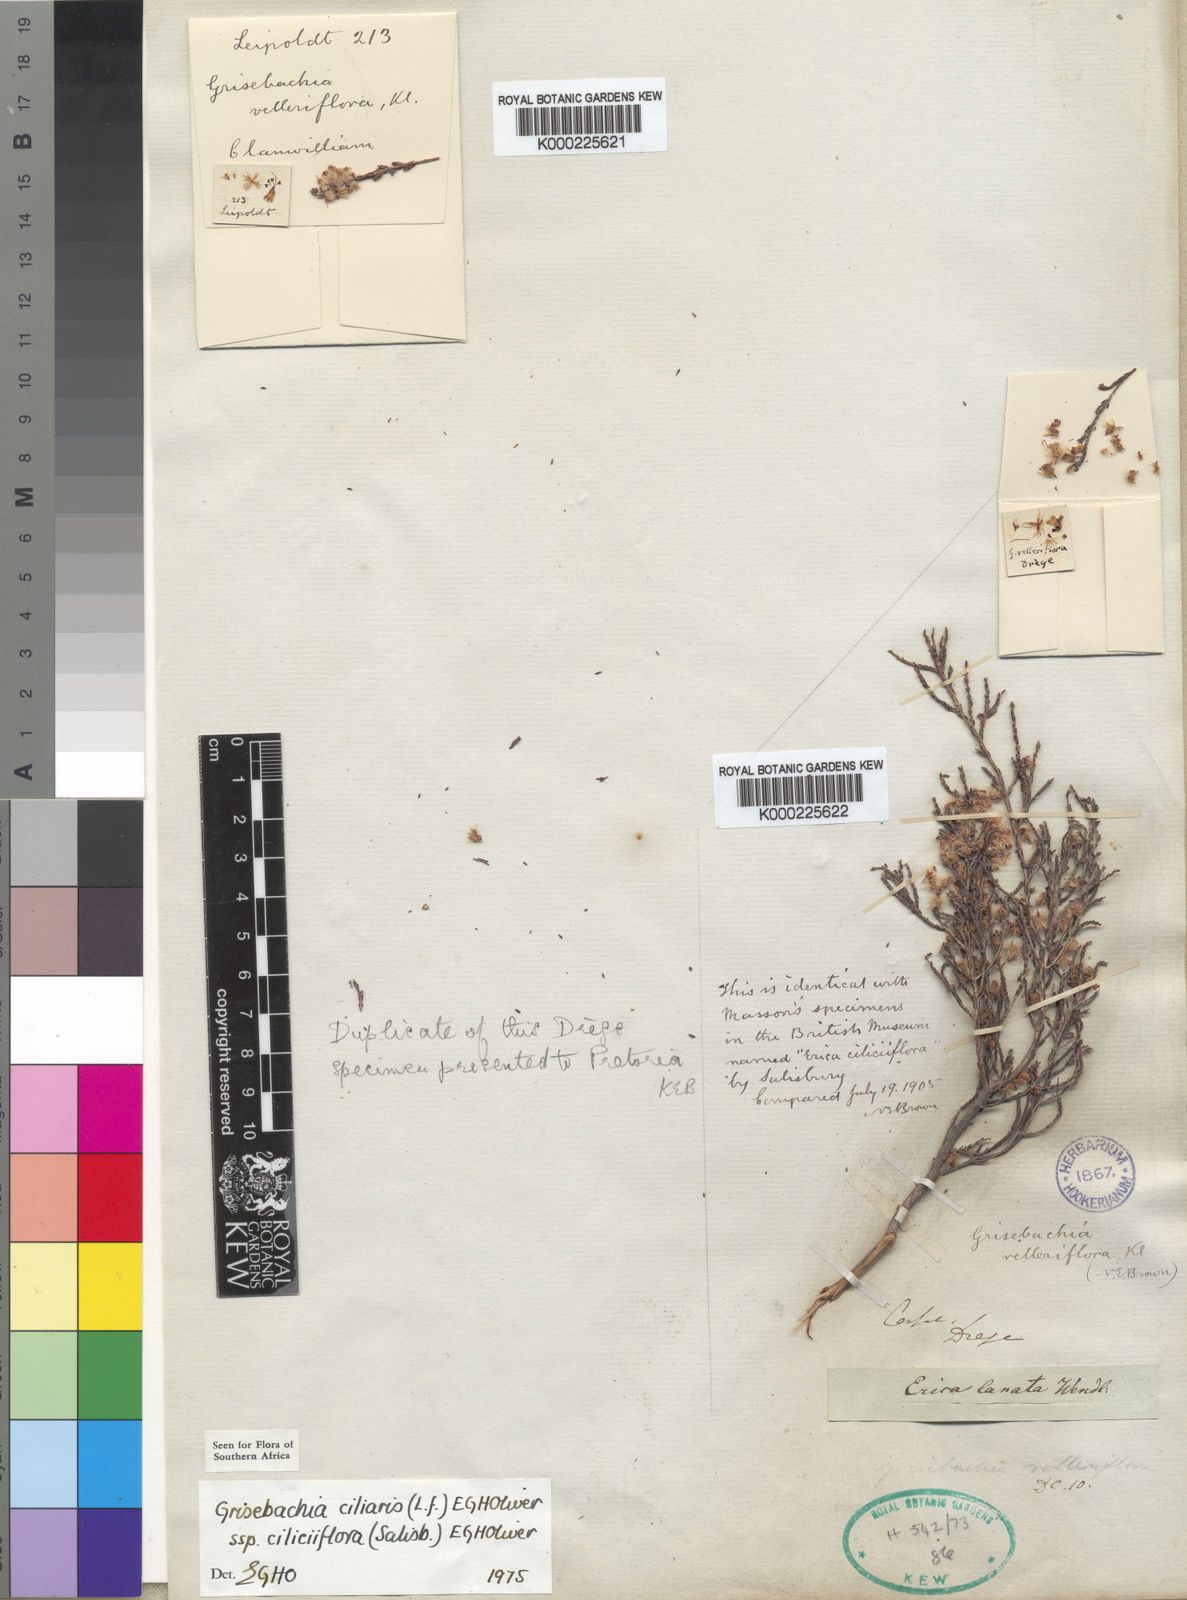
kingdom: Plantae
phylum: Tracheophyta
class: Magnoliopsida
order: Ericales
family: Ericaceae
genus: Erica
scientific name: Erica plumosa
